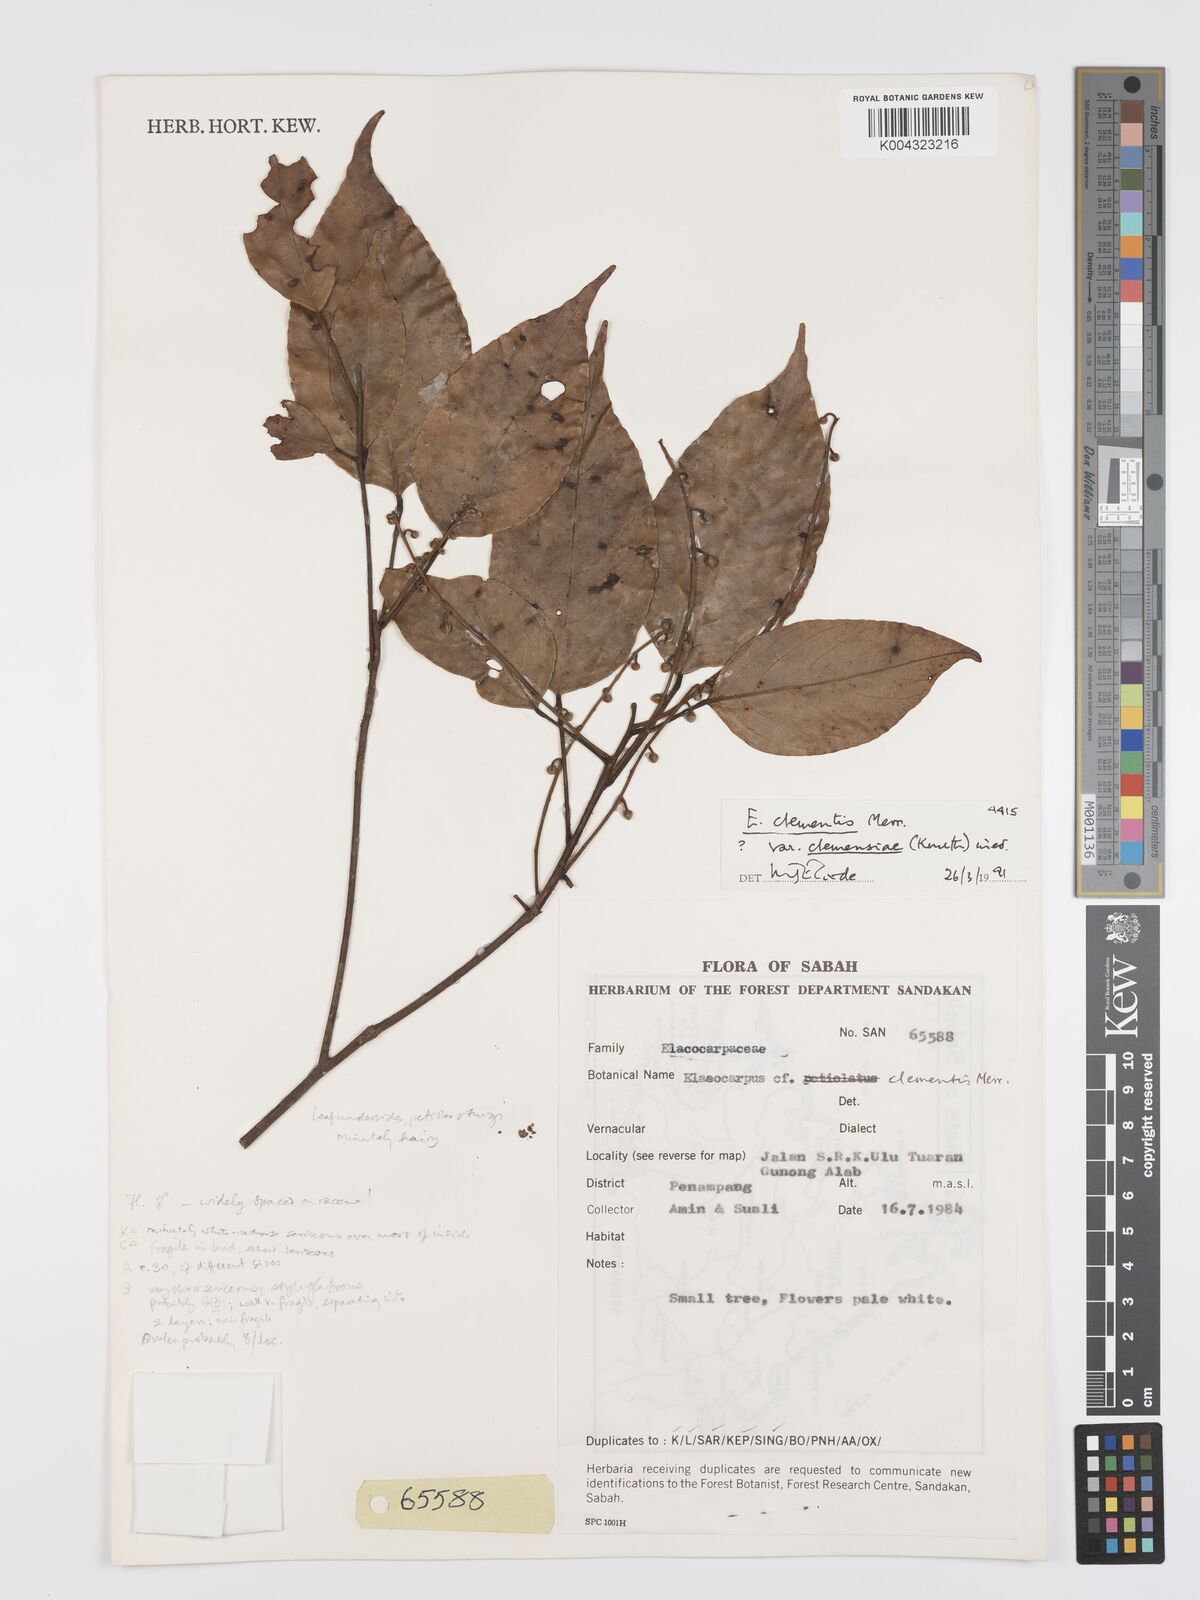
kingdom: Plantae
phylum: Tracheophyta
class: Magnoliopsida
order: Oxalidales
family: Elaeocarpaceae
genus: Elaeocarpus
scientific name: Elaeocarpus clementis
